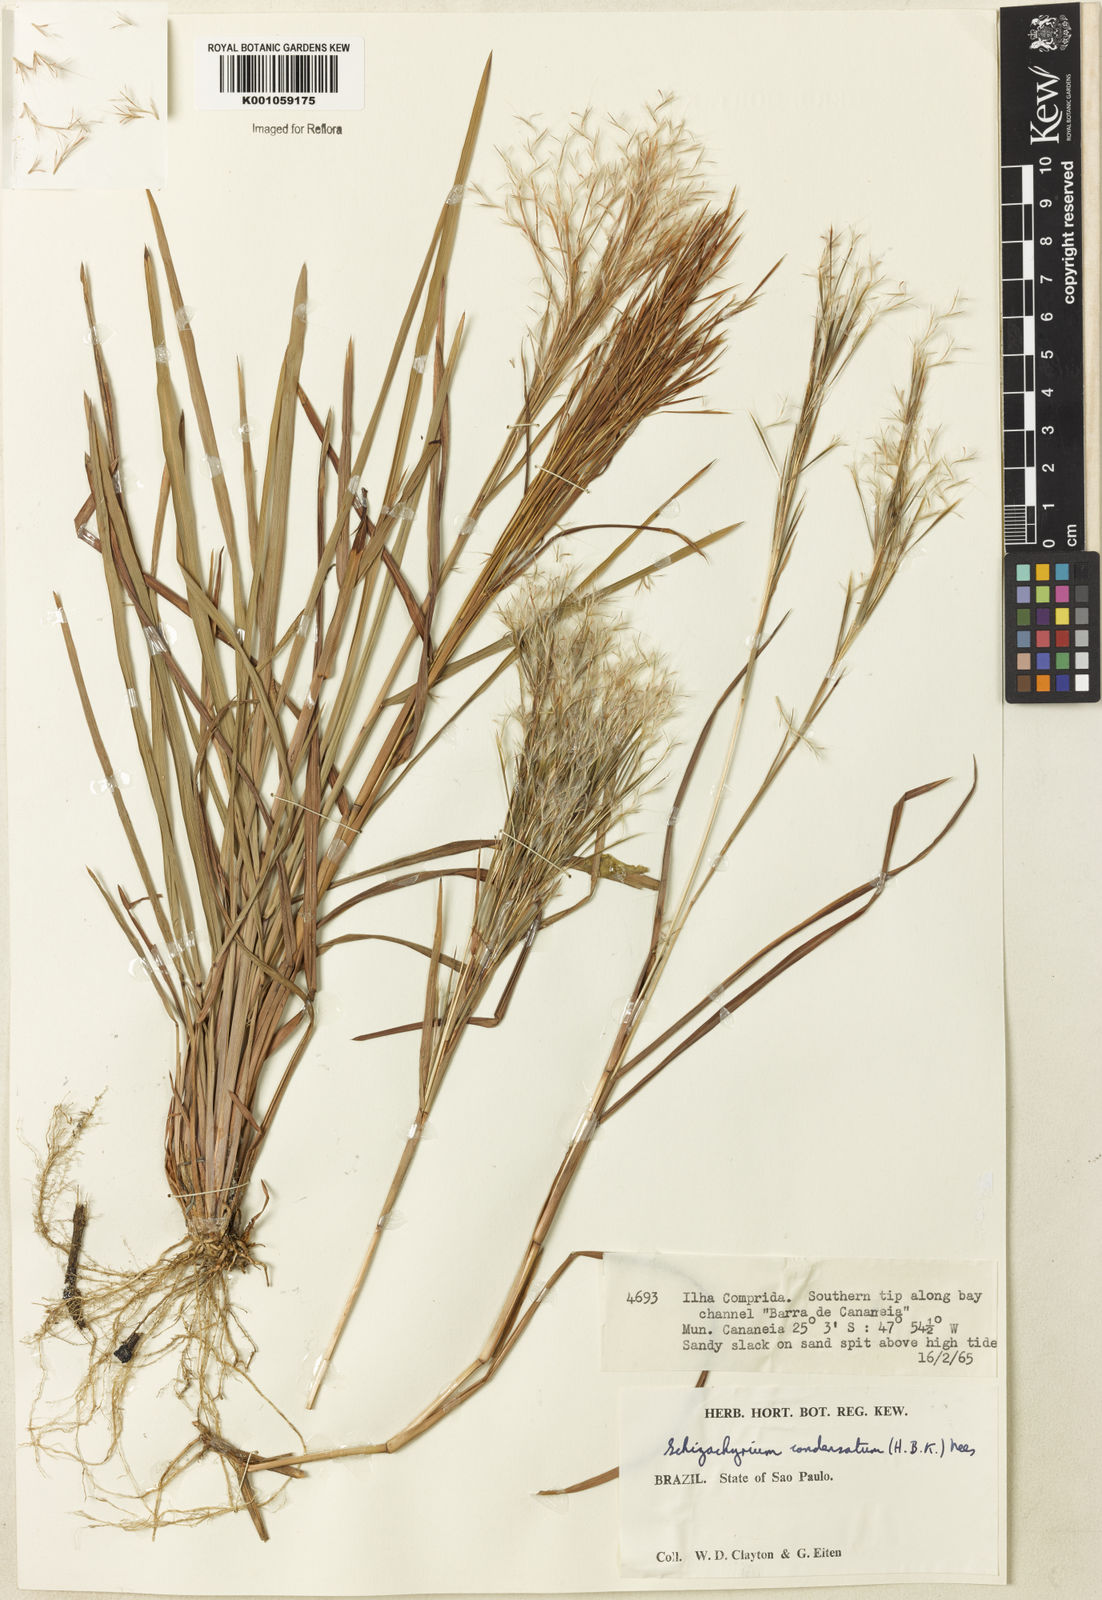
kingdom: Plantae
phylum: Tracheophyta
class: Liliopsida
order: Poales
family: Poaceae
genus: Schizachyrium
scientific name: Schizachyrium condensatum
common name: Bush beardgrass
